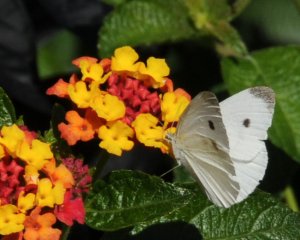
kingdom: Animalia
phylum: Arthropoda
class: Insecta
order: Lepidoptera
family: Pieridae
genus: Pieris
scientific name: Pieris rapae
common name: Cabbage White
